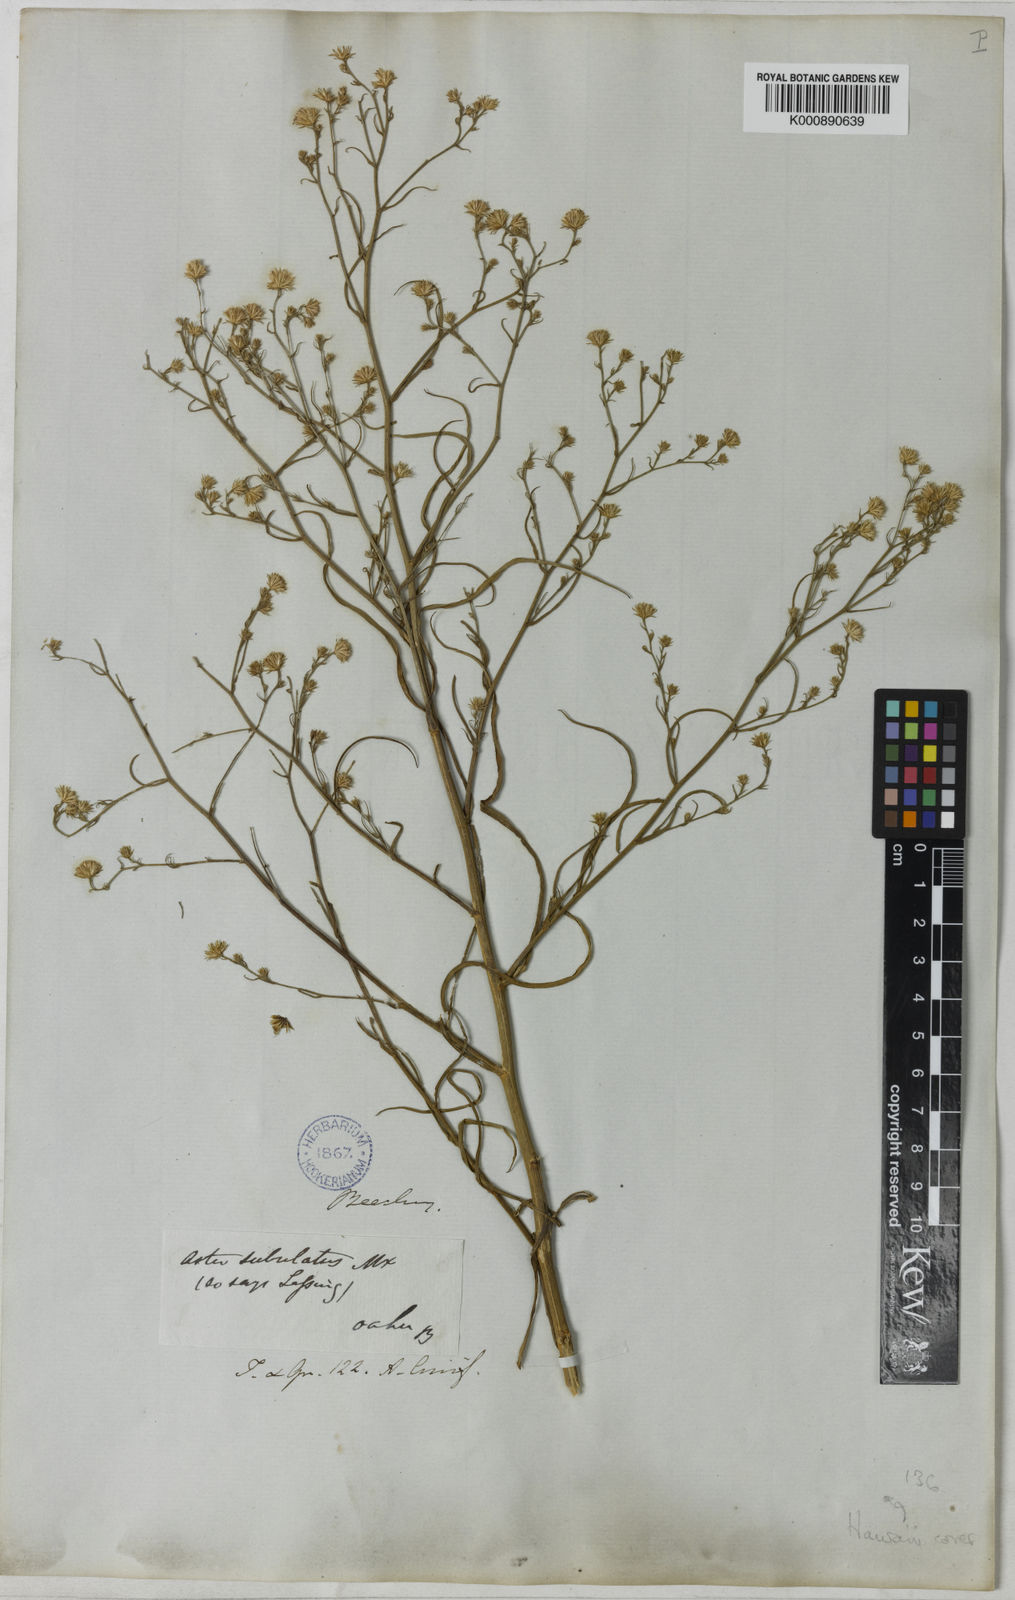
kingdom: Plantae
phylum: Tracheophyta
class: Magnoliopsida
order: Asterales
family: Asteraceae
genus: Symphyotrichum
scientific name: Symphyotrichum squamatum
